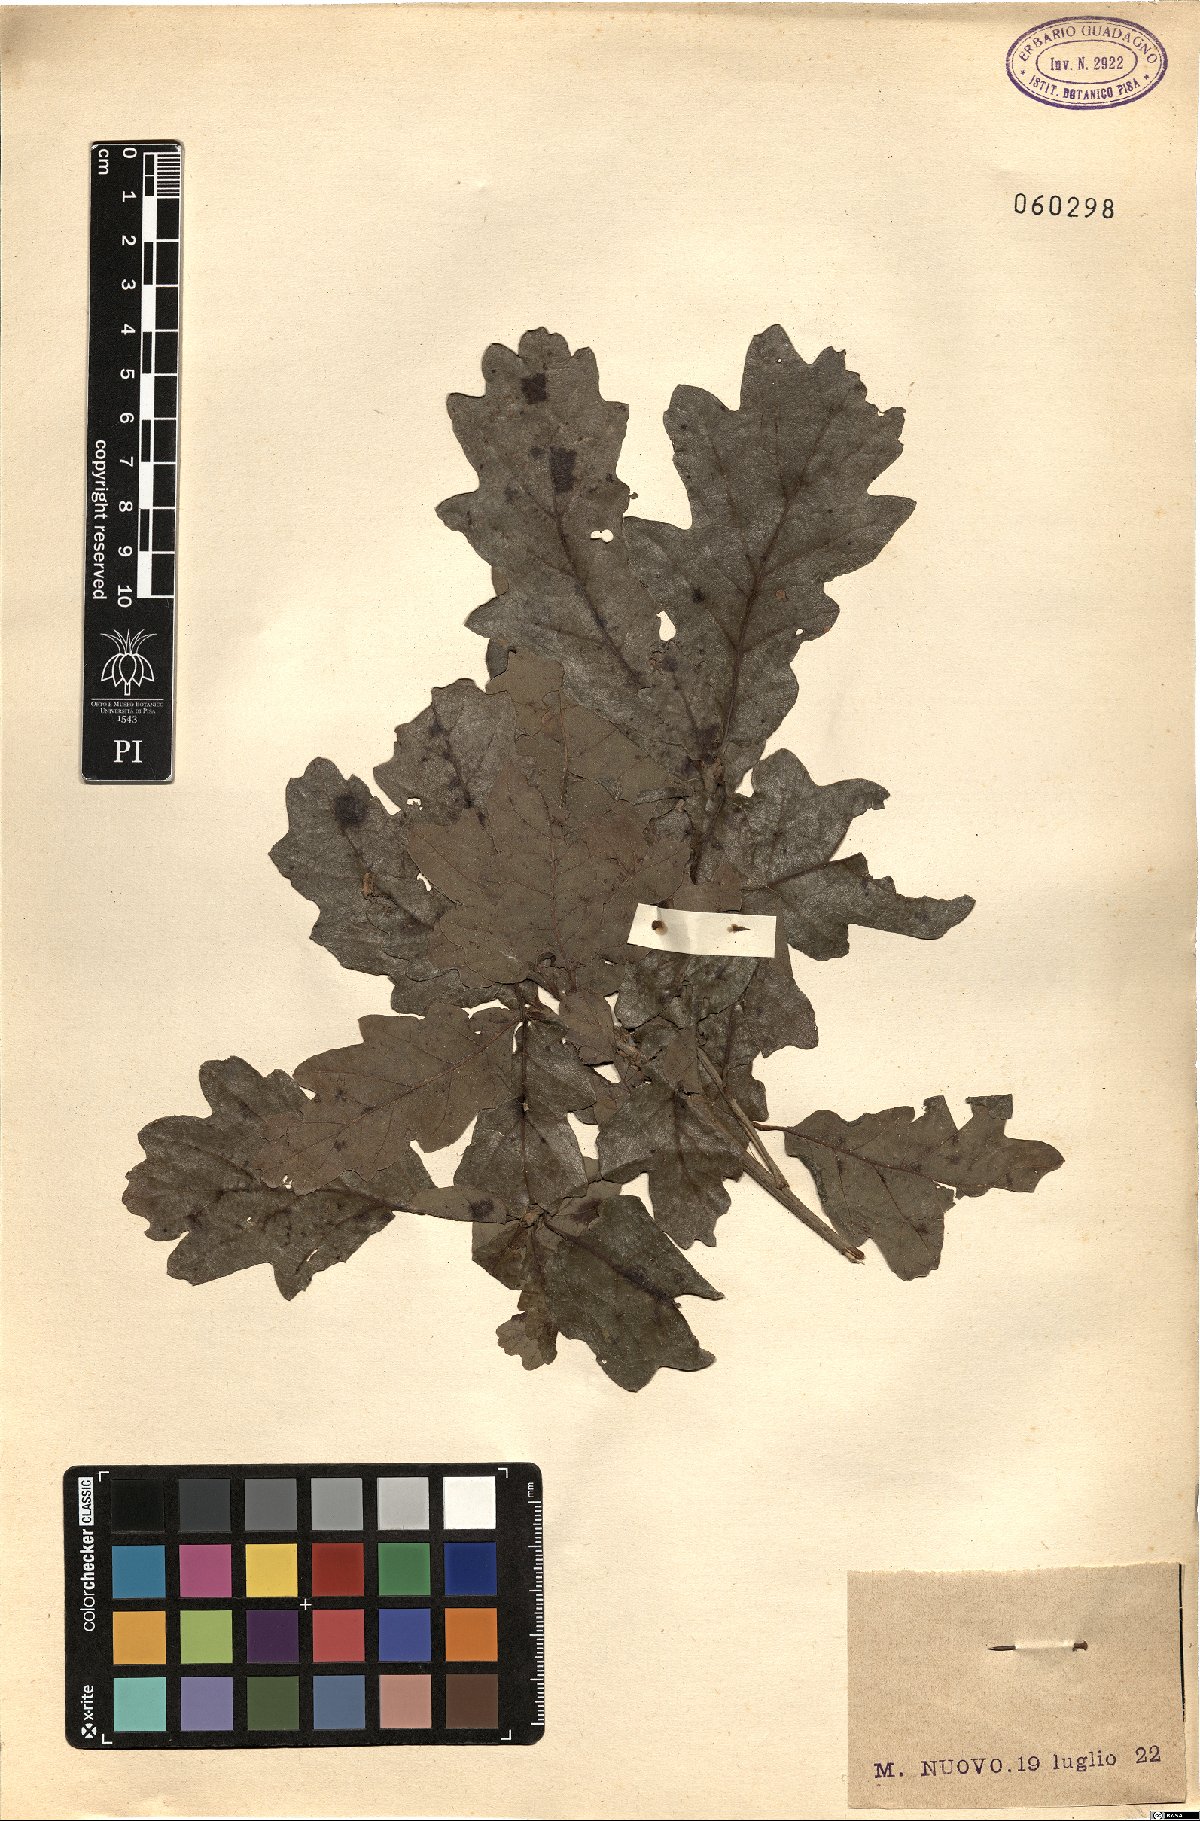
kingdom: Plantae
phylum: Tracheophyta
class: Magnoliopsida
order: Fagales
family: Fagaceae
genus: Quercus
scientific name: Quercus cerris
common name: Turkey oak
